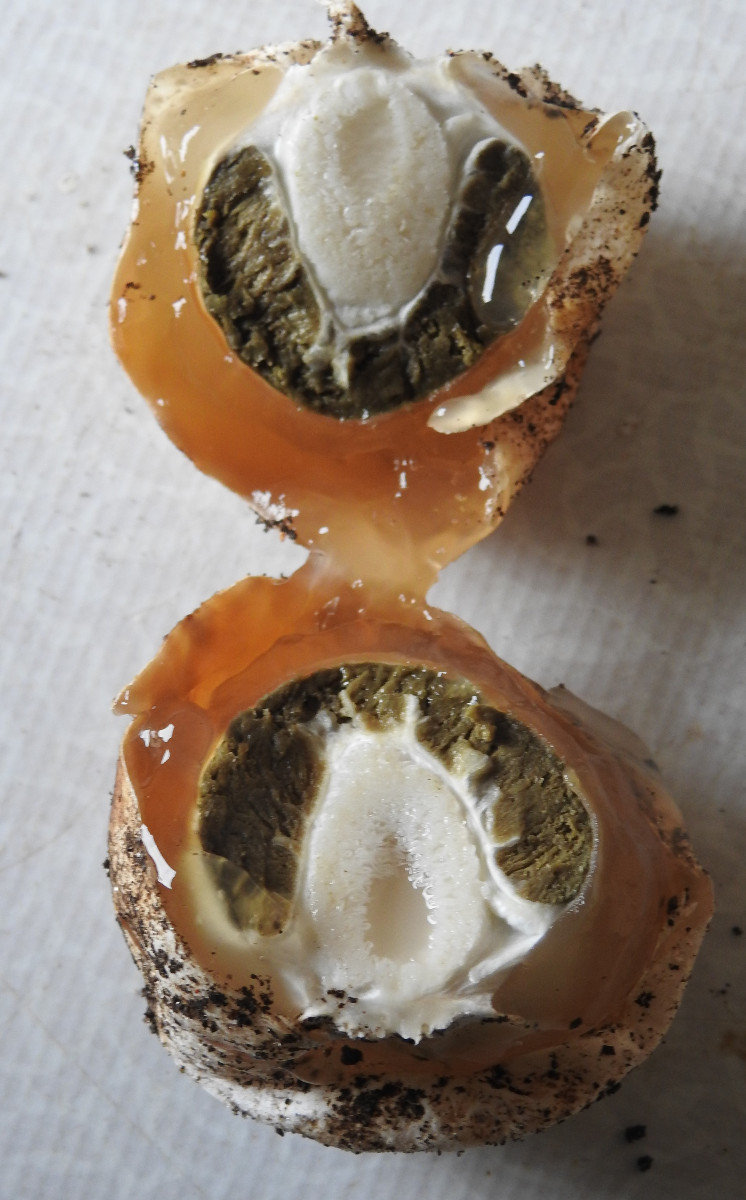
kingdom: Fungi
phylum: Basidiomycota
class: Agaricomycetes
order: Phallales
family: Phallaceae
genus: Phallus
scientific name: Phallus impudicus
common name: almindelig stinksvamp
